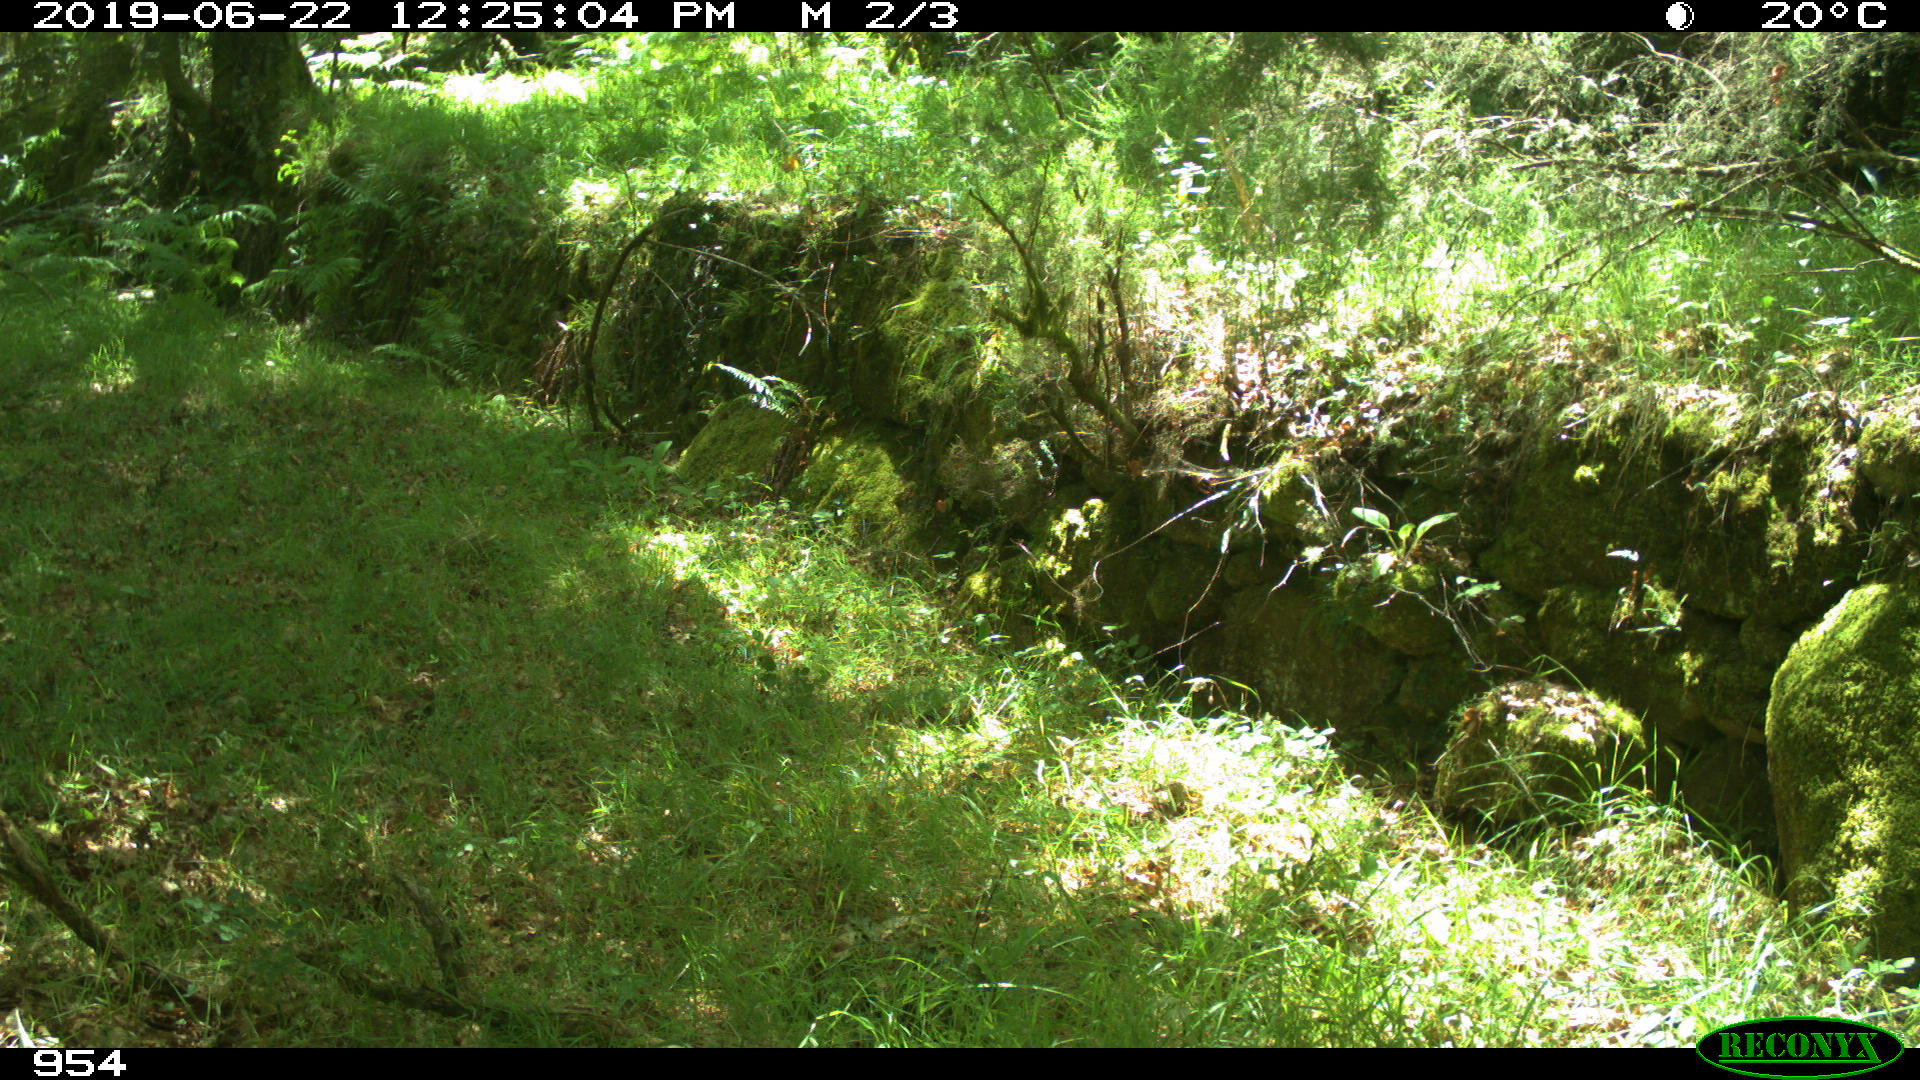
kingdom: Animalia
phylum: Chordata
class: Mammalia
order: Artiodactyla
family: Bovidae
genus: Bos
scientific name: Bos taurus
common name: Domesticated cattle
